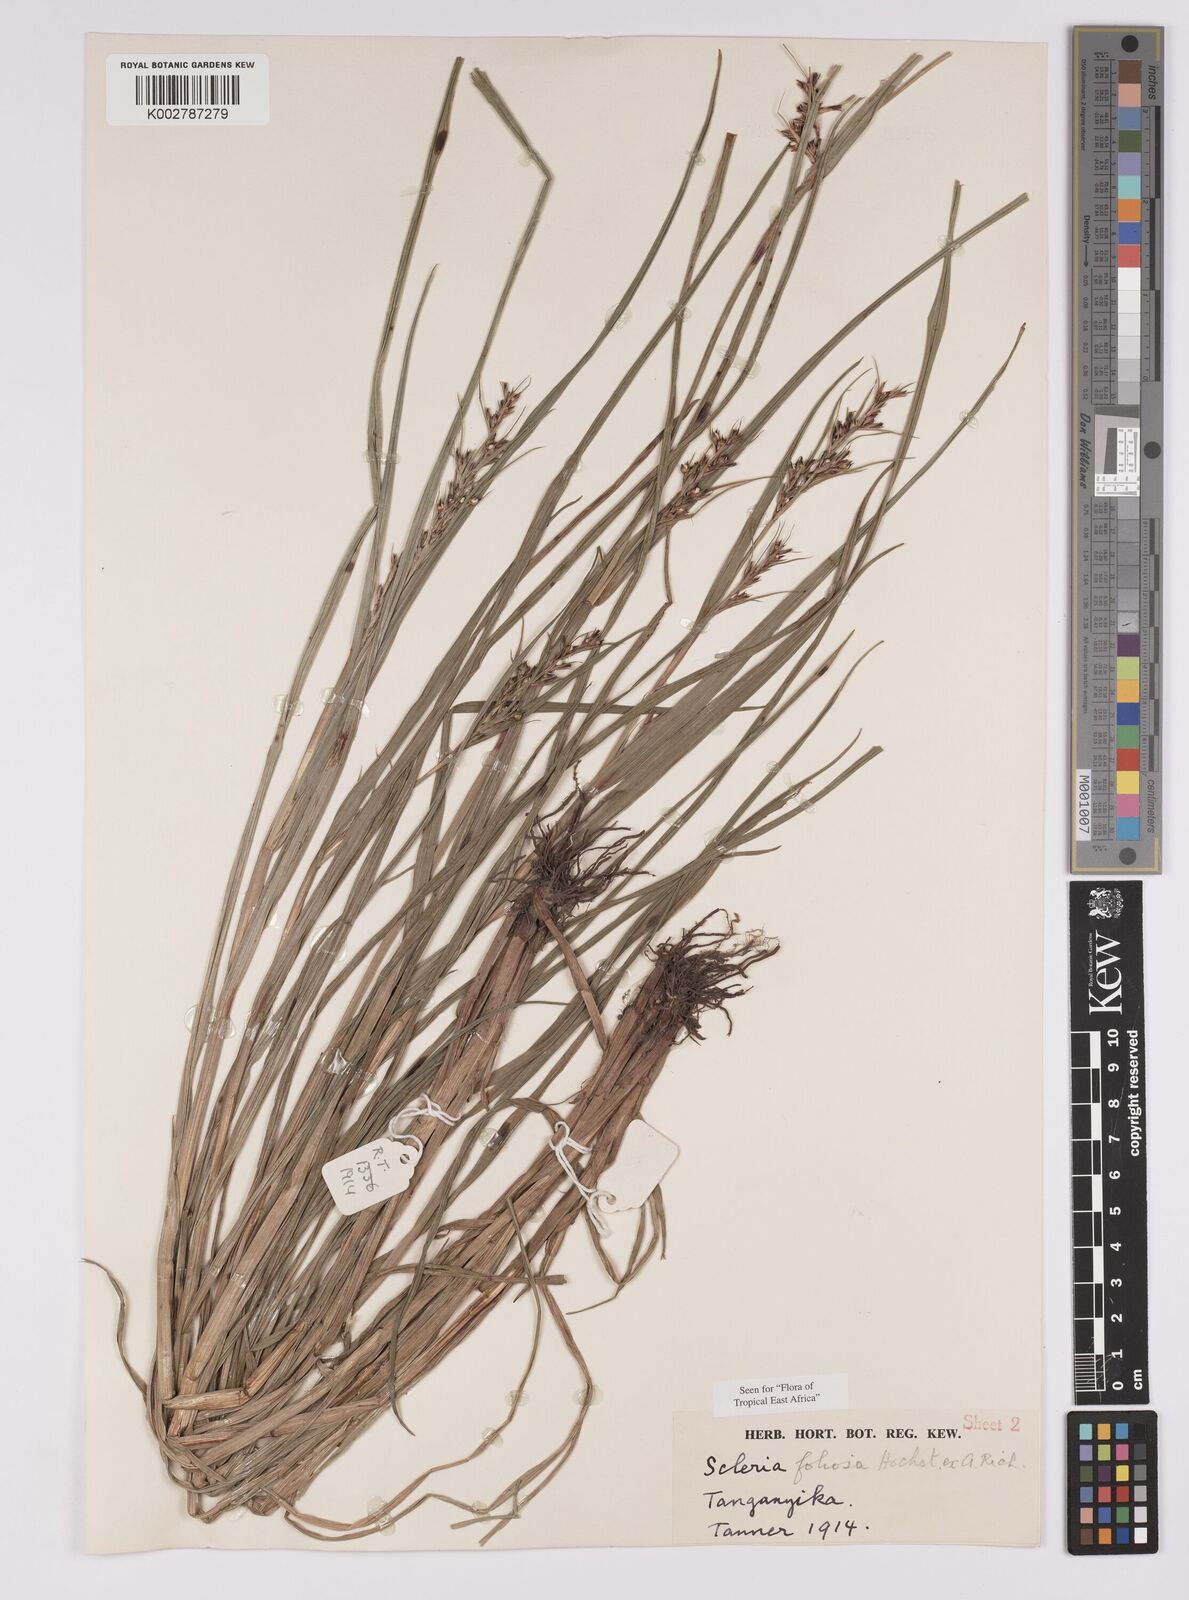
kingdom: Plantae
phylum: Tracheophyta
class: Liliopsida
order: Poales
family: Cyperaceae
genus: Scleria
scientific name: Scleria foliosa
